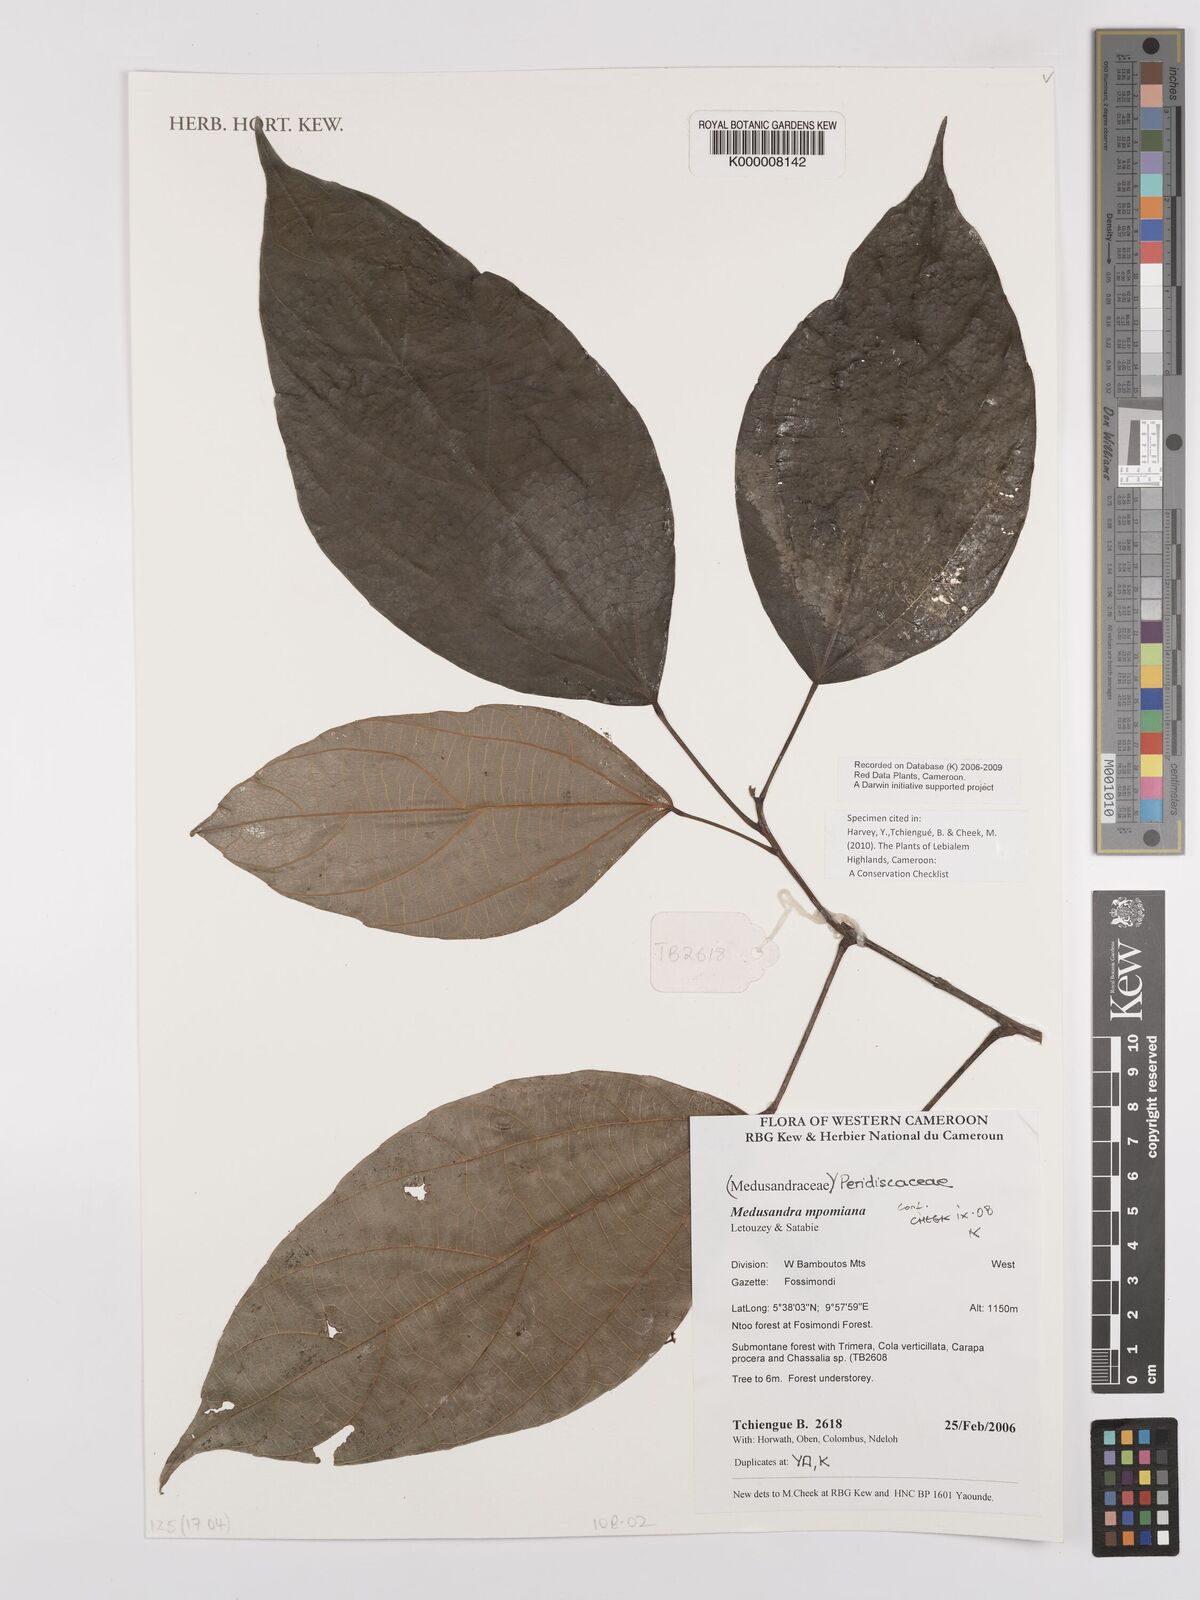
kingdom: Plantae
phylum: Tracheophyta
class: Magnoliopsida
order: Saxifragales
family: Peridiscaceae
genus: Medusandra
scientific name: Medusandra mpomiana
